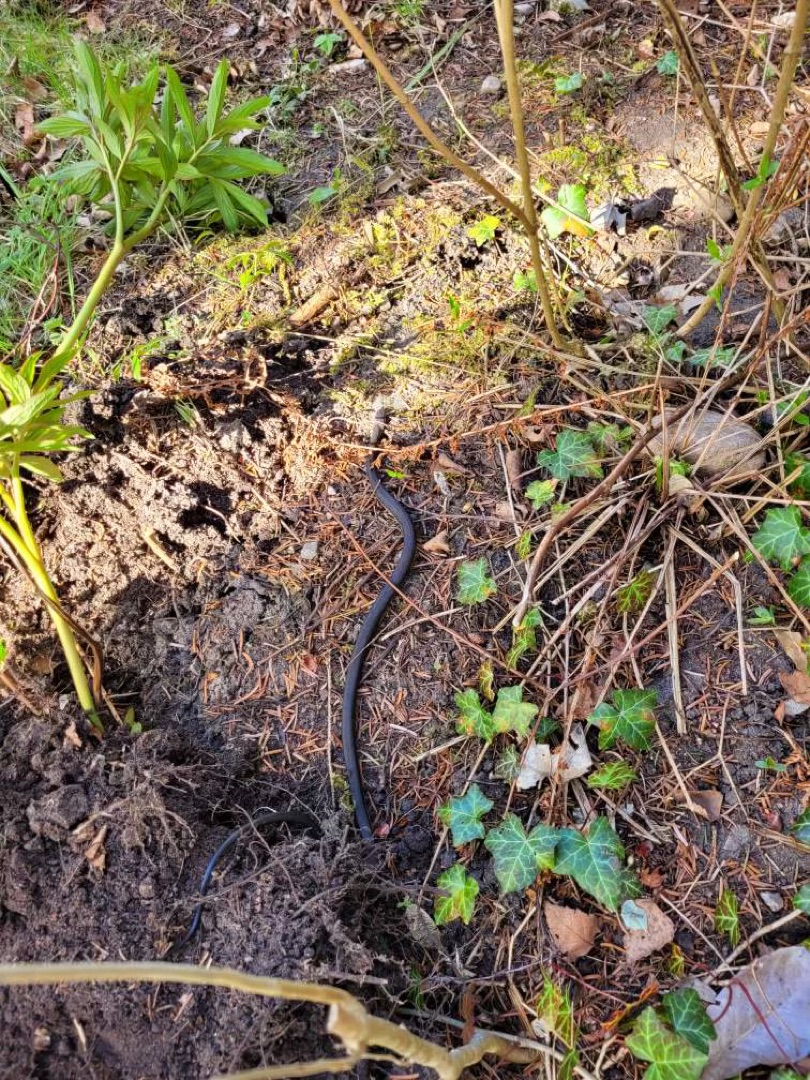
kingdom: Animalia
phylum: Chordata
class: Squamata
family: Colubridae
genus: Natrix
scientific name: Natrix natrix
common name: Snog
